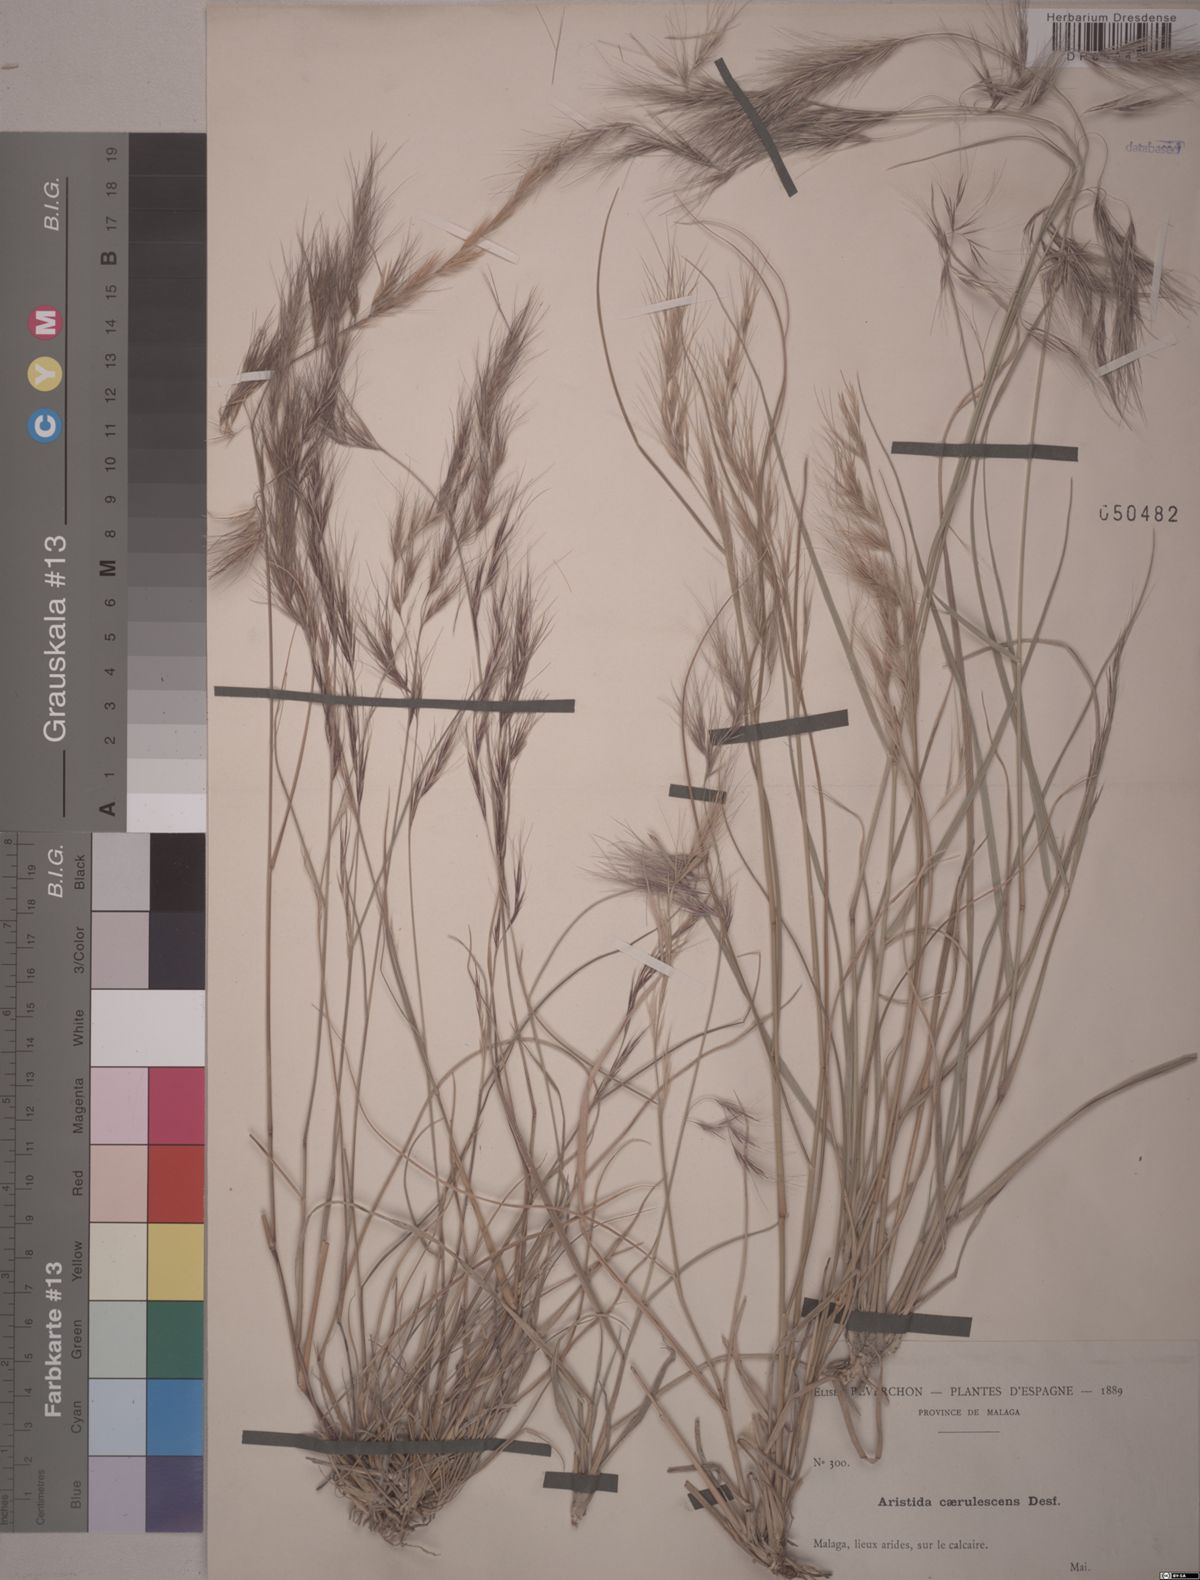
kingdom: Plantae
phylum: Tracheophyta
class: Liliopsida
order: Poales
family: Poaceae
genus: Aristida
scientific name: Aristida adscensionis
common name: Sixweeks threeawn
